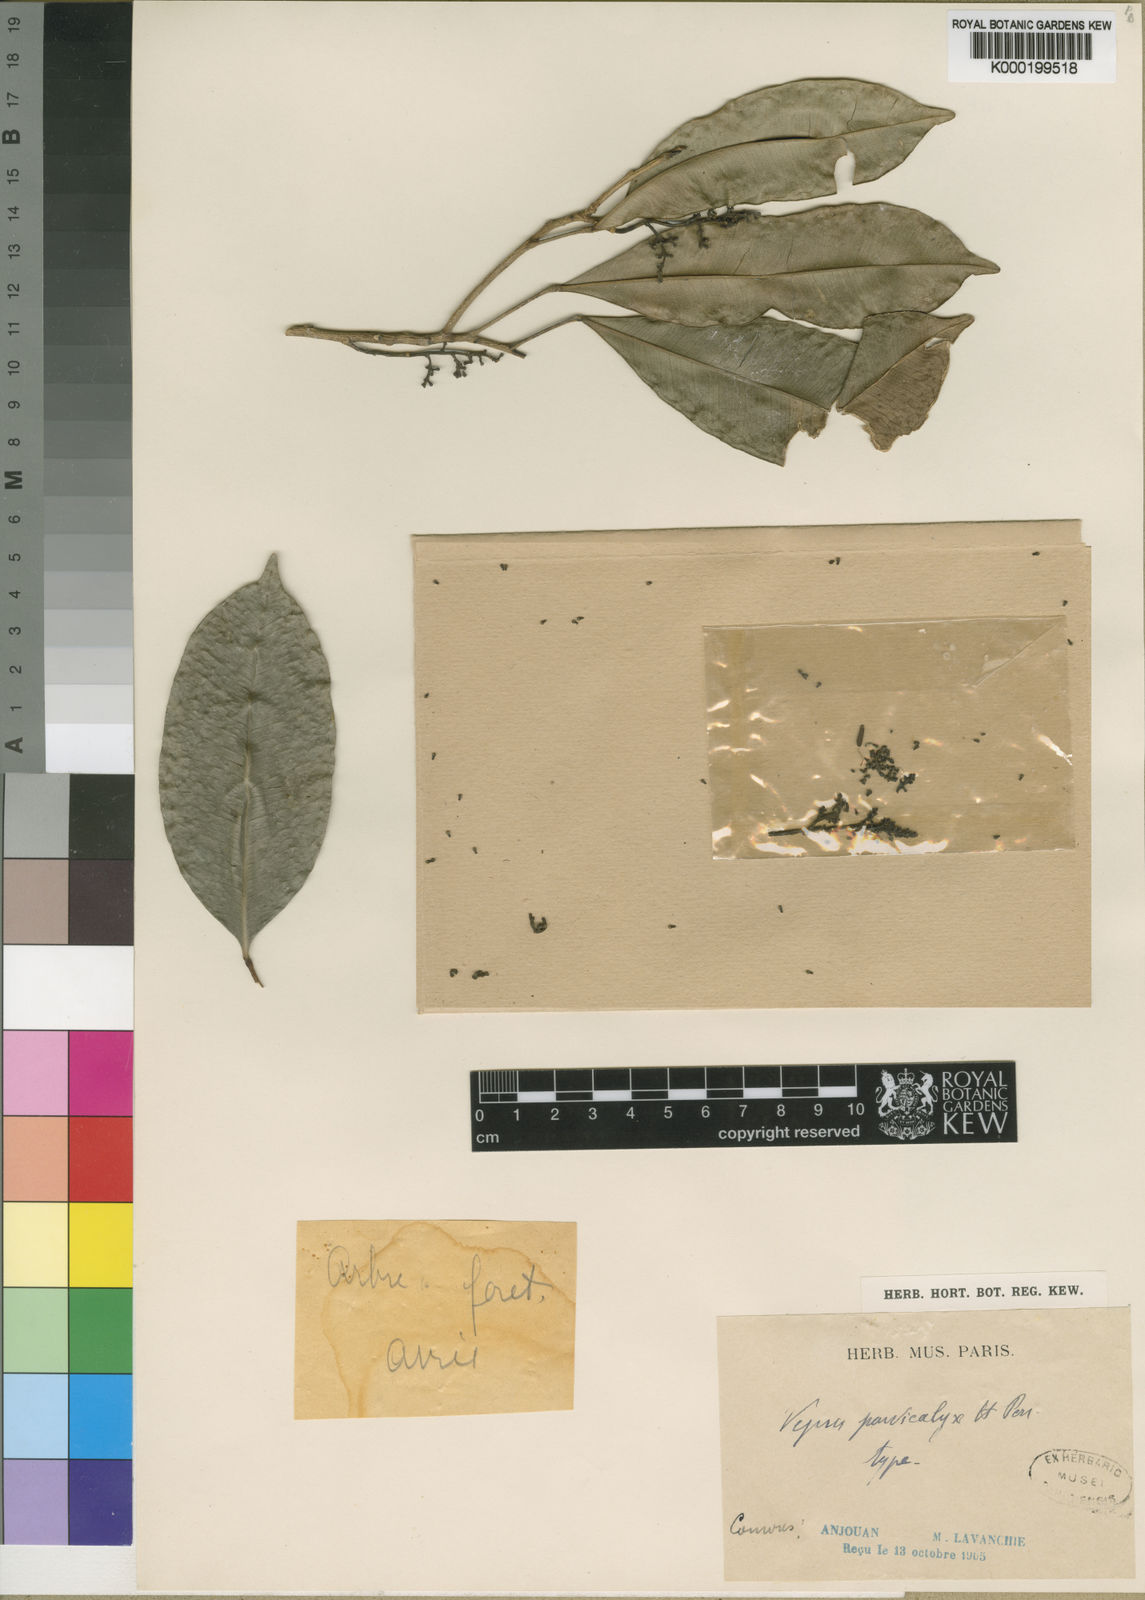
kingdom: Plantae
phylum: Tracheophyta
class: Magnoliopsida
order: Sapindales
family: Rutaceae
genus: Vepris
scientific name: Vepris parvicalyx
